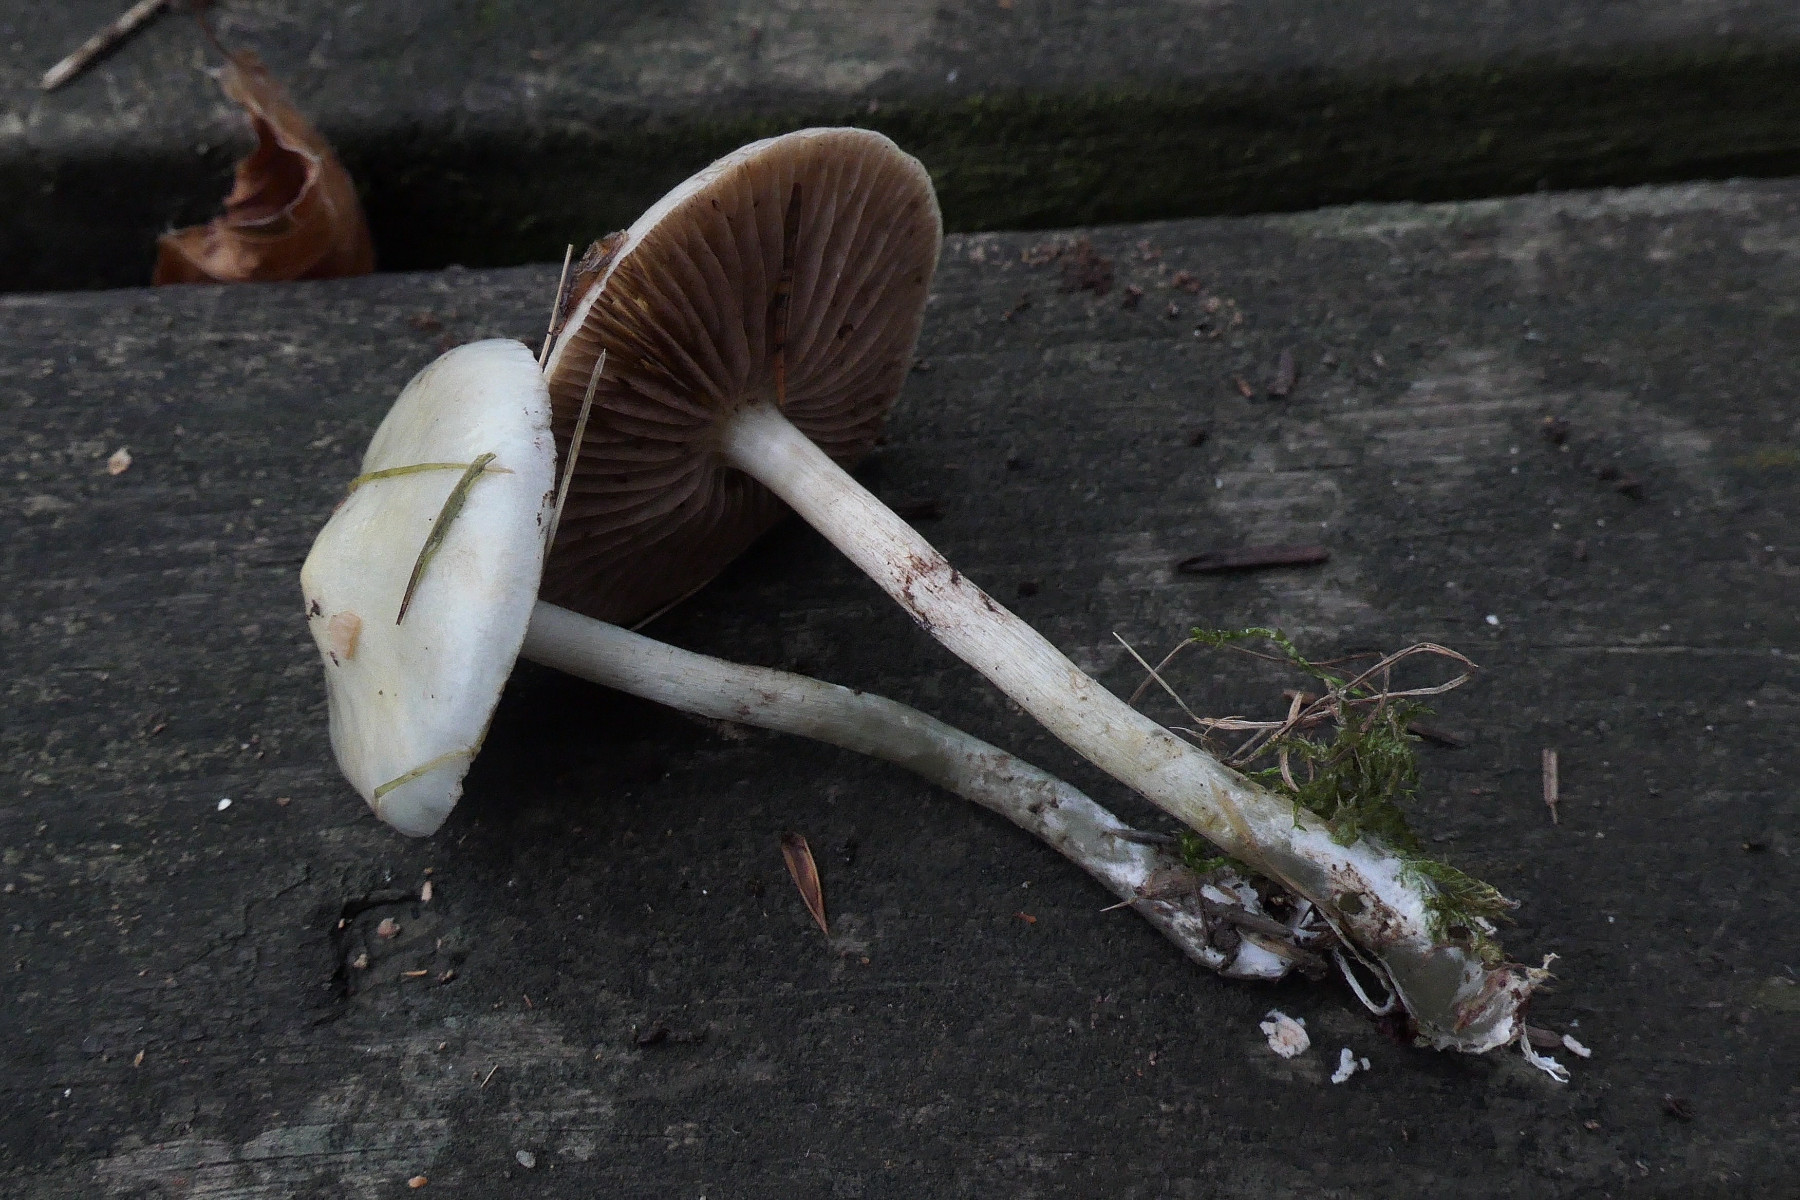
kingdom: Fungi
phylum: Basidiomycota
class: Agaricomycetes
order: Agaricales
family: Strophariaceae
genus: Stropharia
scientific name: Stropharia cyanea
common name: blågrøn bredblad
